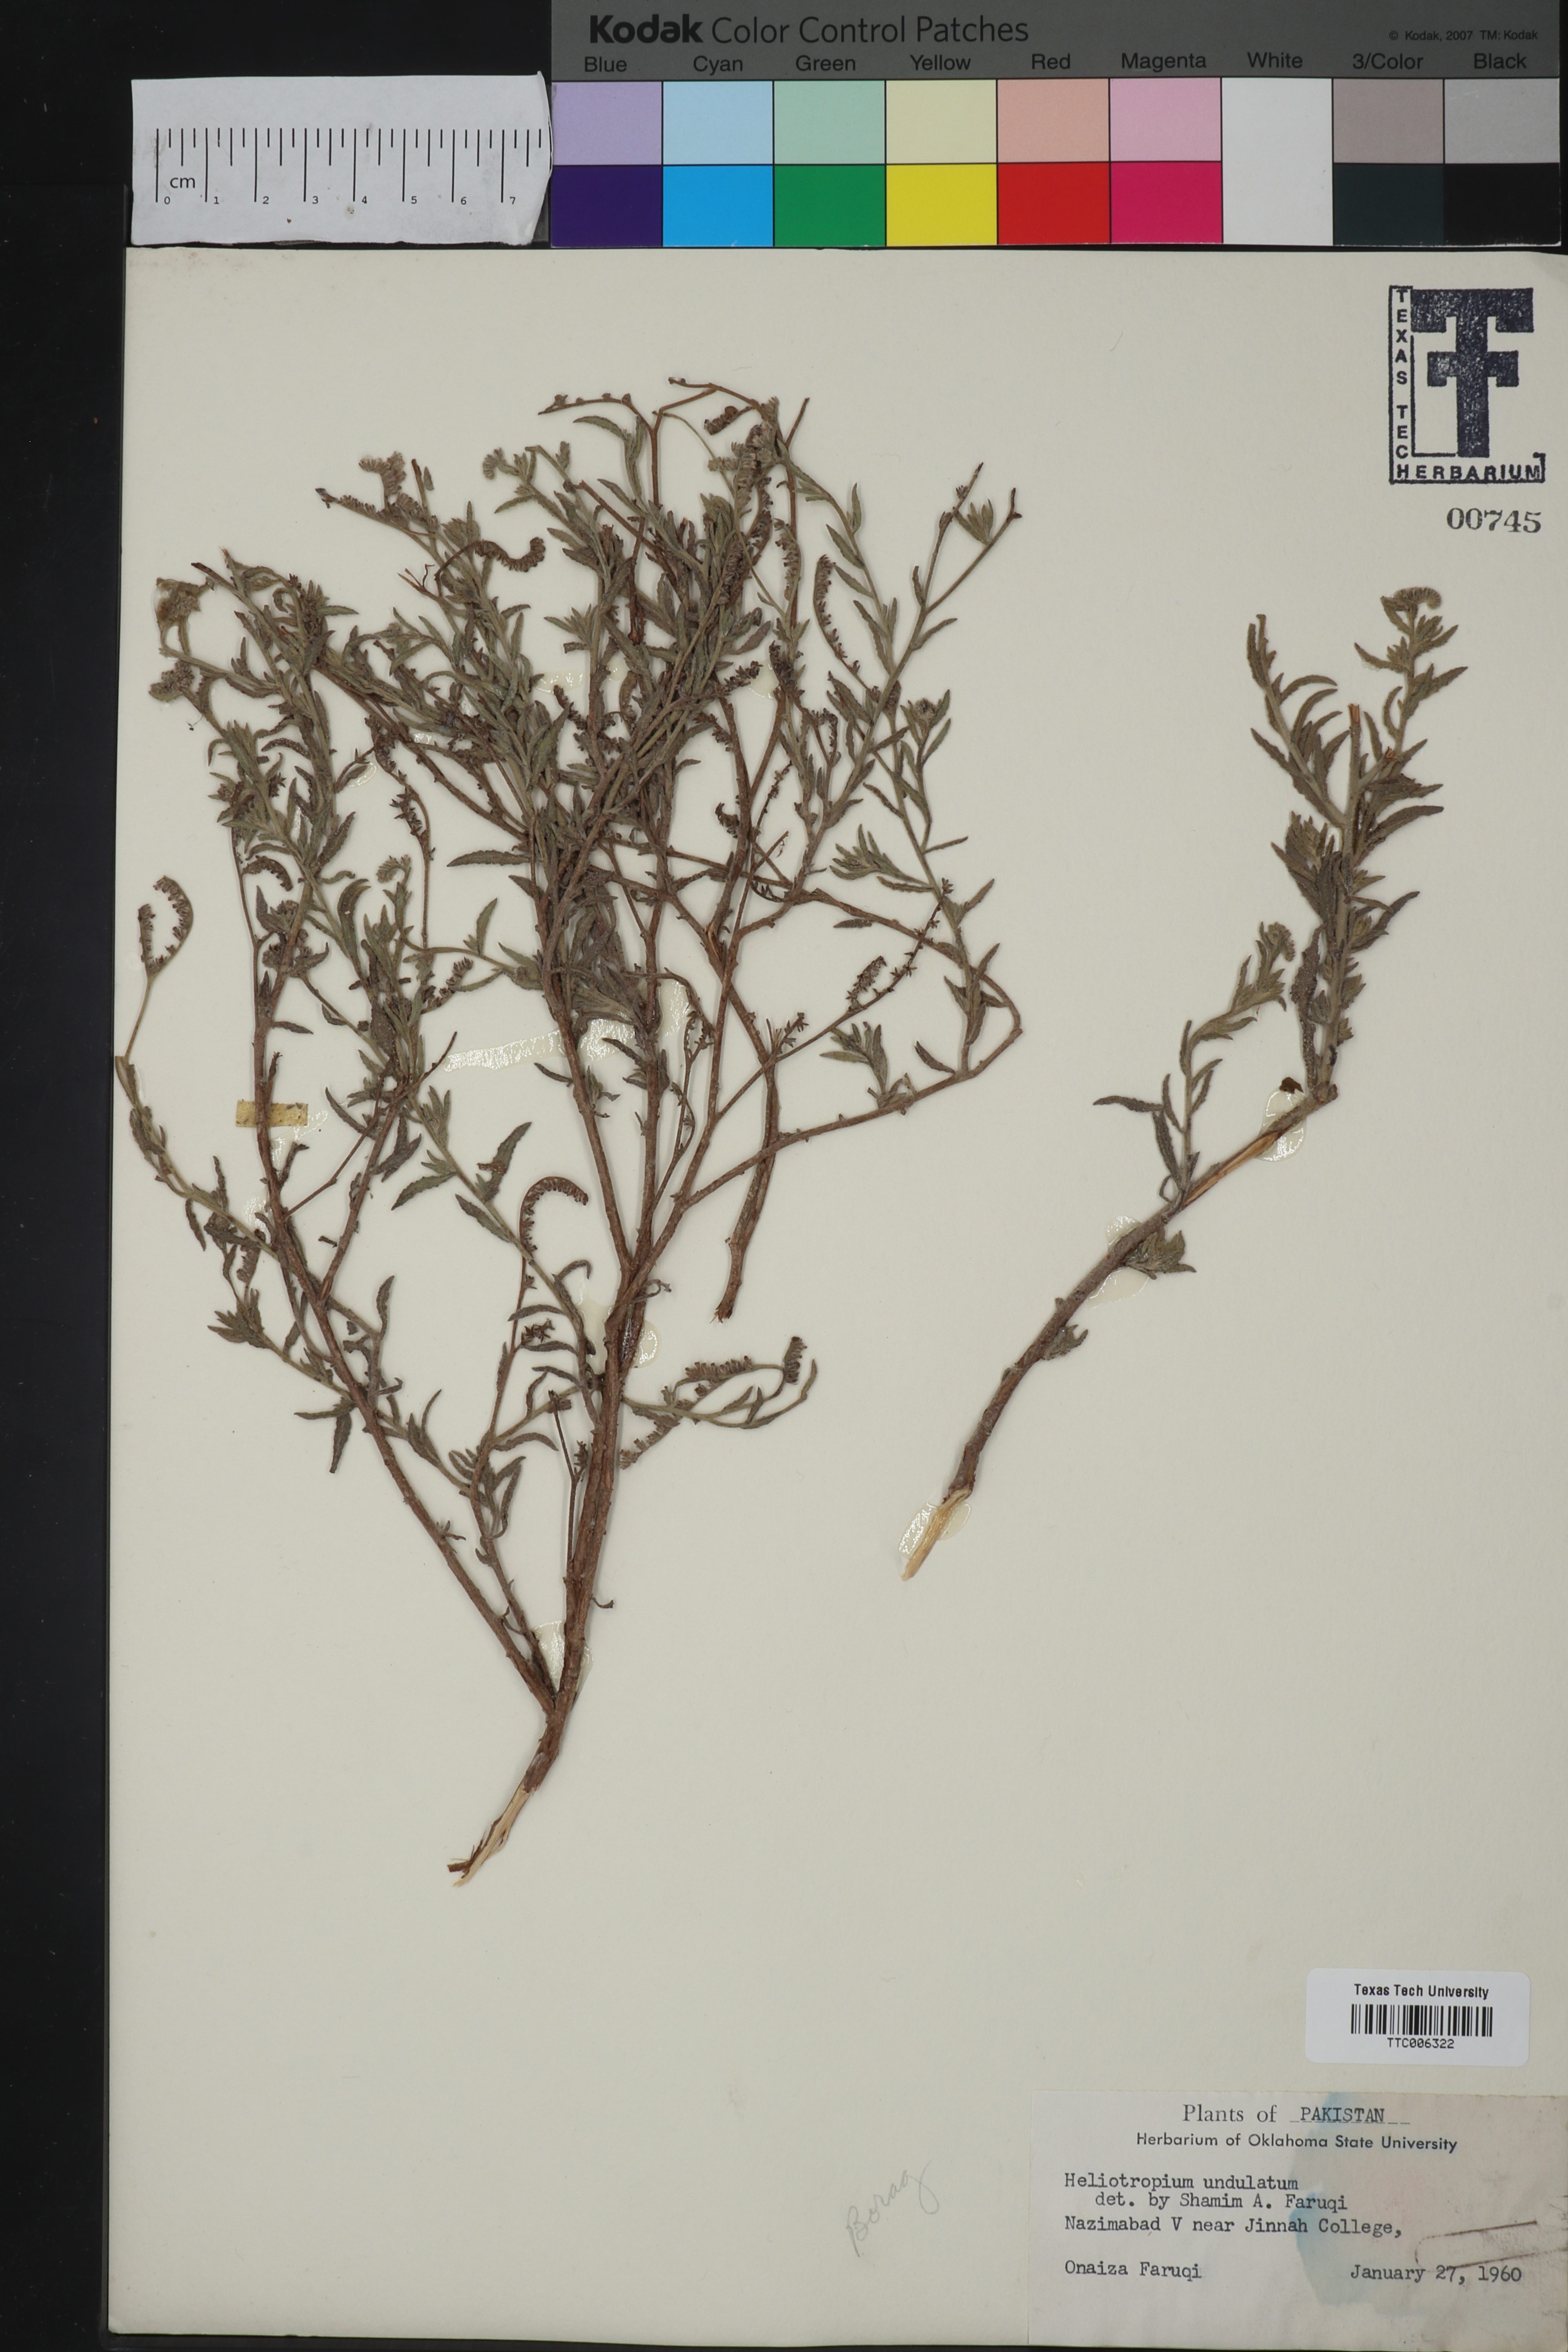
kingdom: Plantae
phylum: Tracheophyta
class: Magnoliopsida
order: Boraginales
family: Heliotropiaceae
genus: Heliotropium
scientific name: Heliotropium bacciferum
